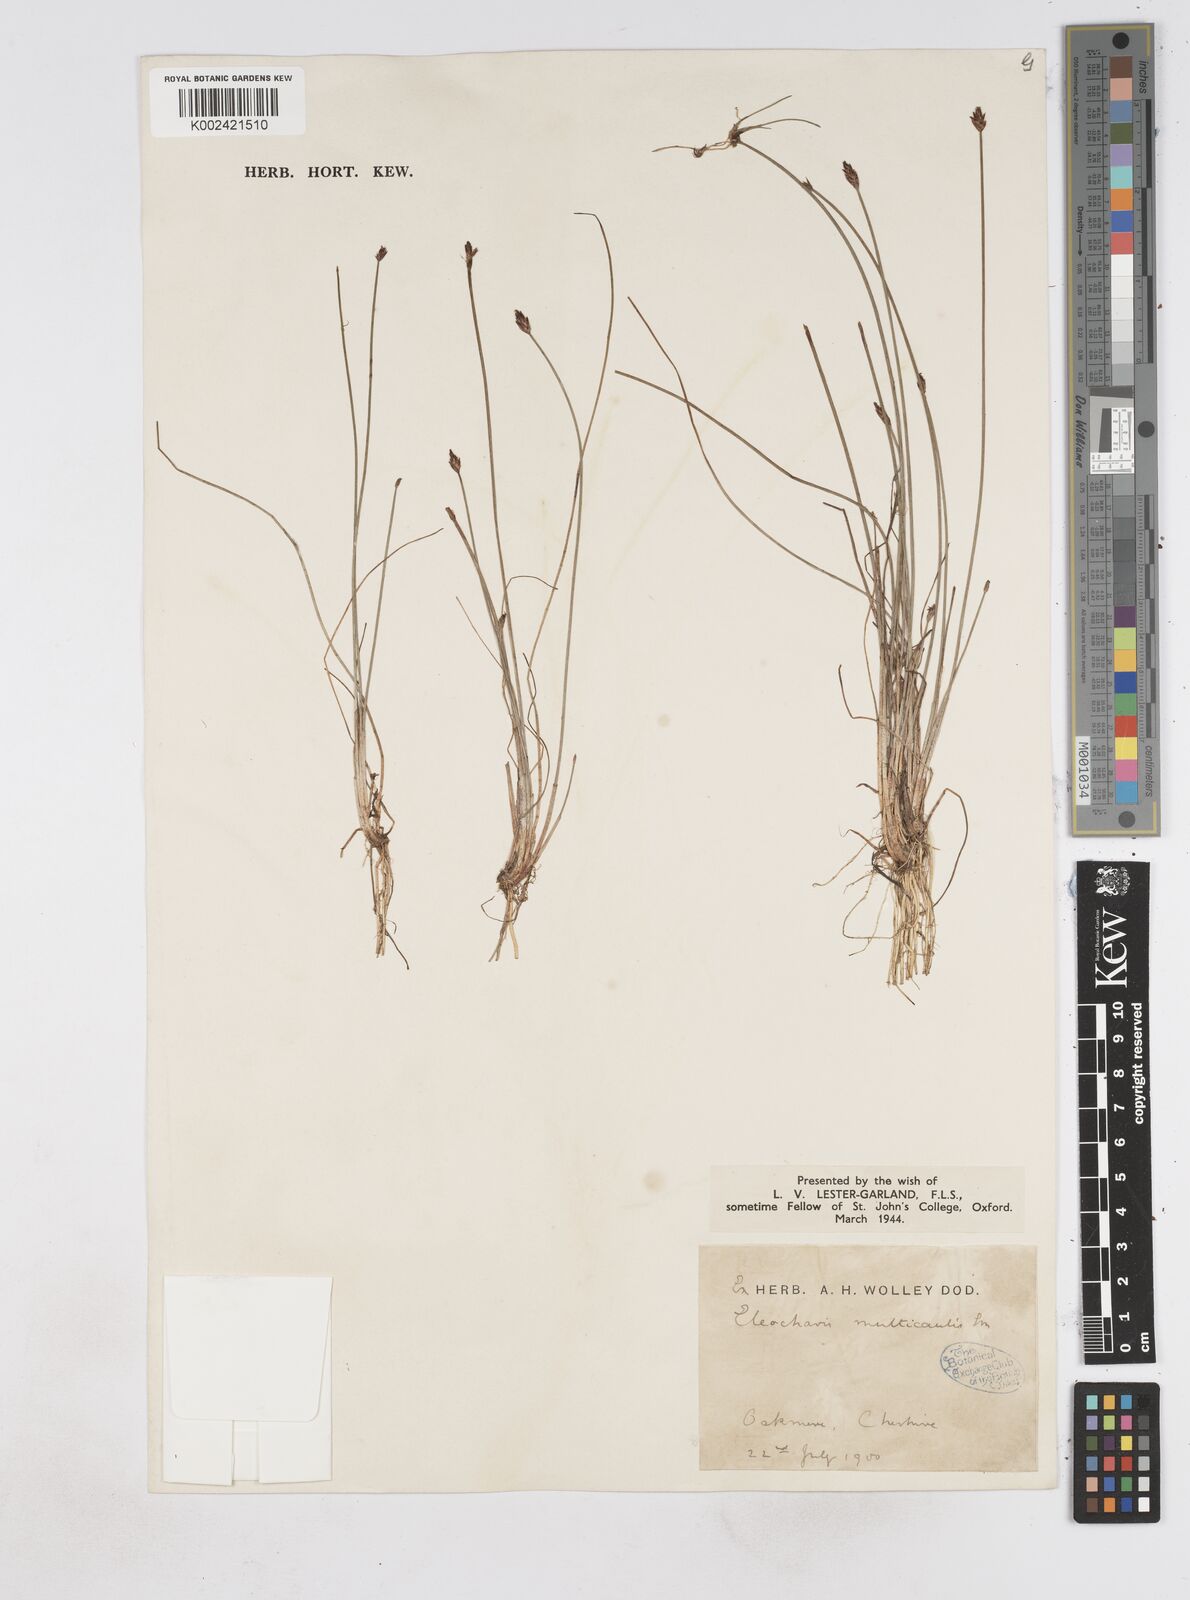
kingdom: Plantae
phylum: Tracheophyta
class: Liliopsida
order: Poales
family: Cyperaceae
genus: Eleocharis
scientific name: Eleocharis multicaulis
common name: Many-stalked spike-rush
